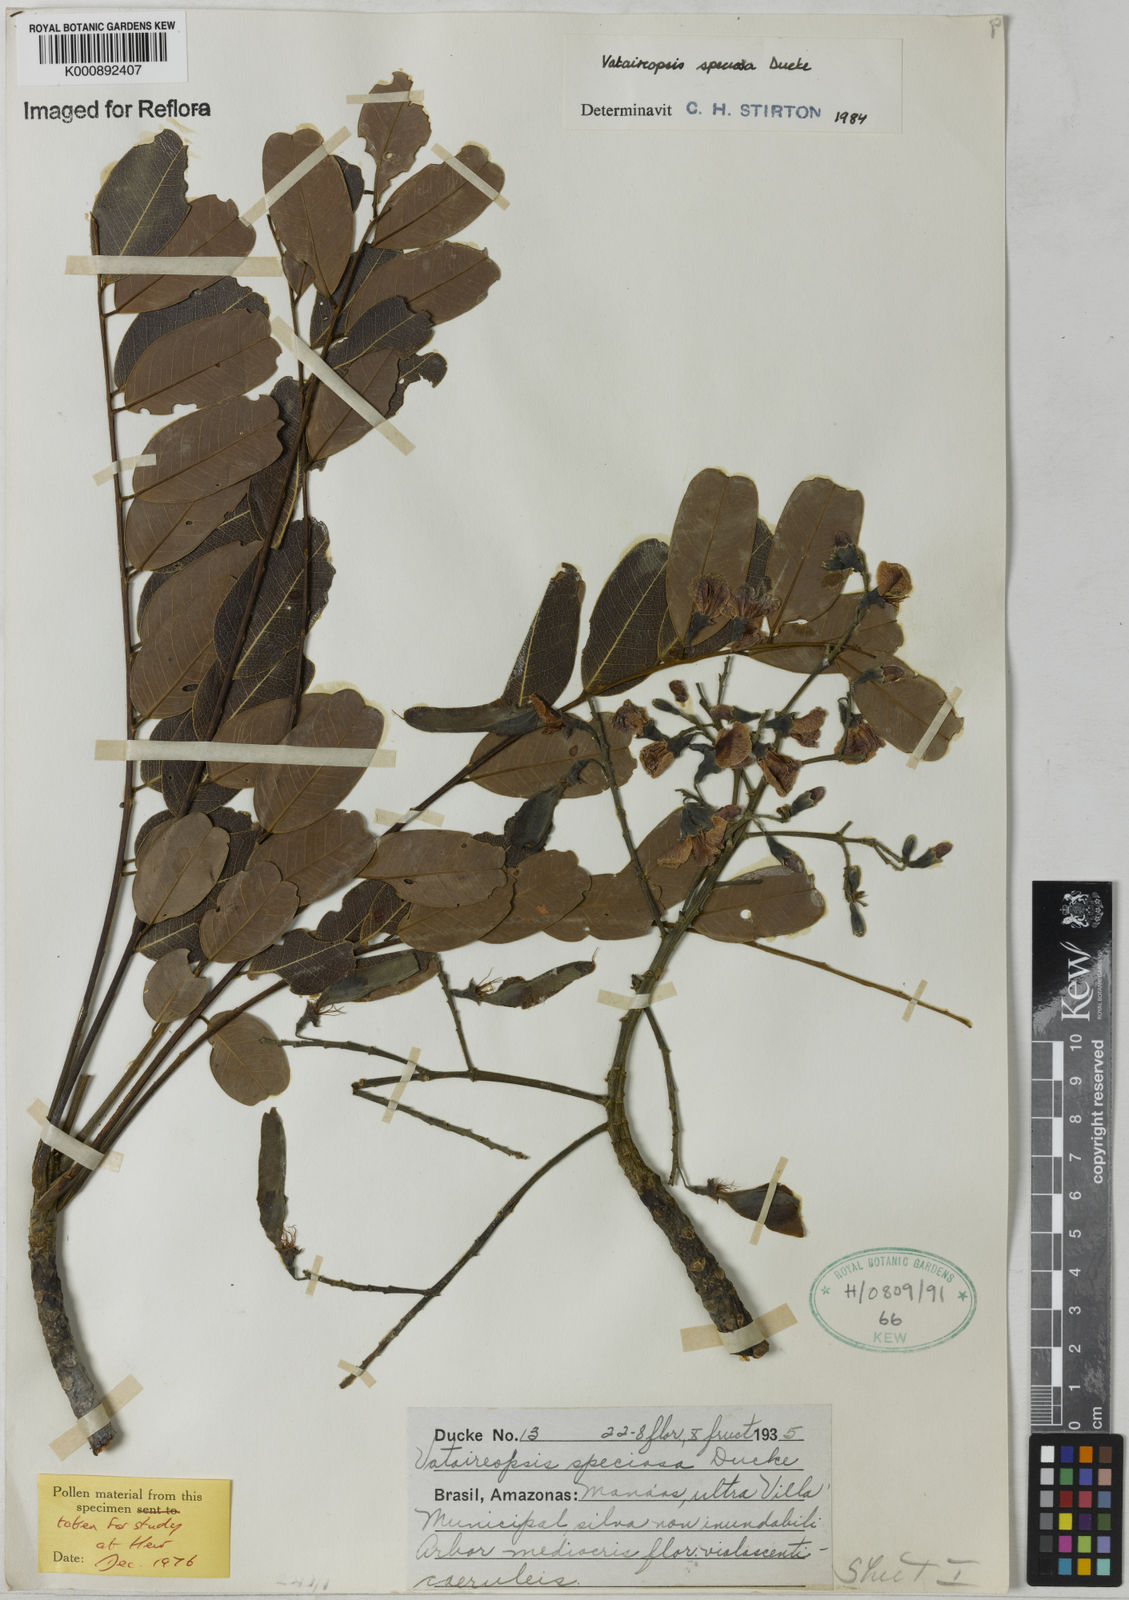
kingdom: Plantae
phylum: Tracheophyta
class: Magnoliopsida
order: Fabales
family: Fabaceae
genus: Vataireopsis
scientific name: Vataireopsis speciosa
